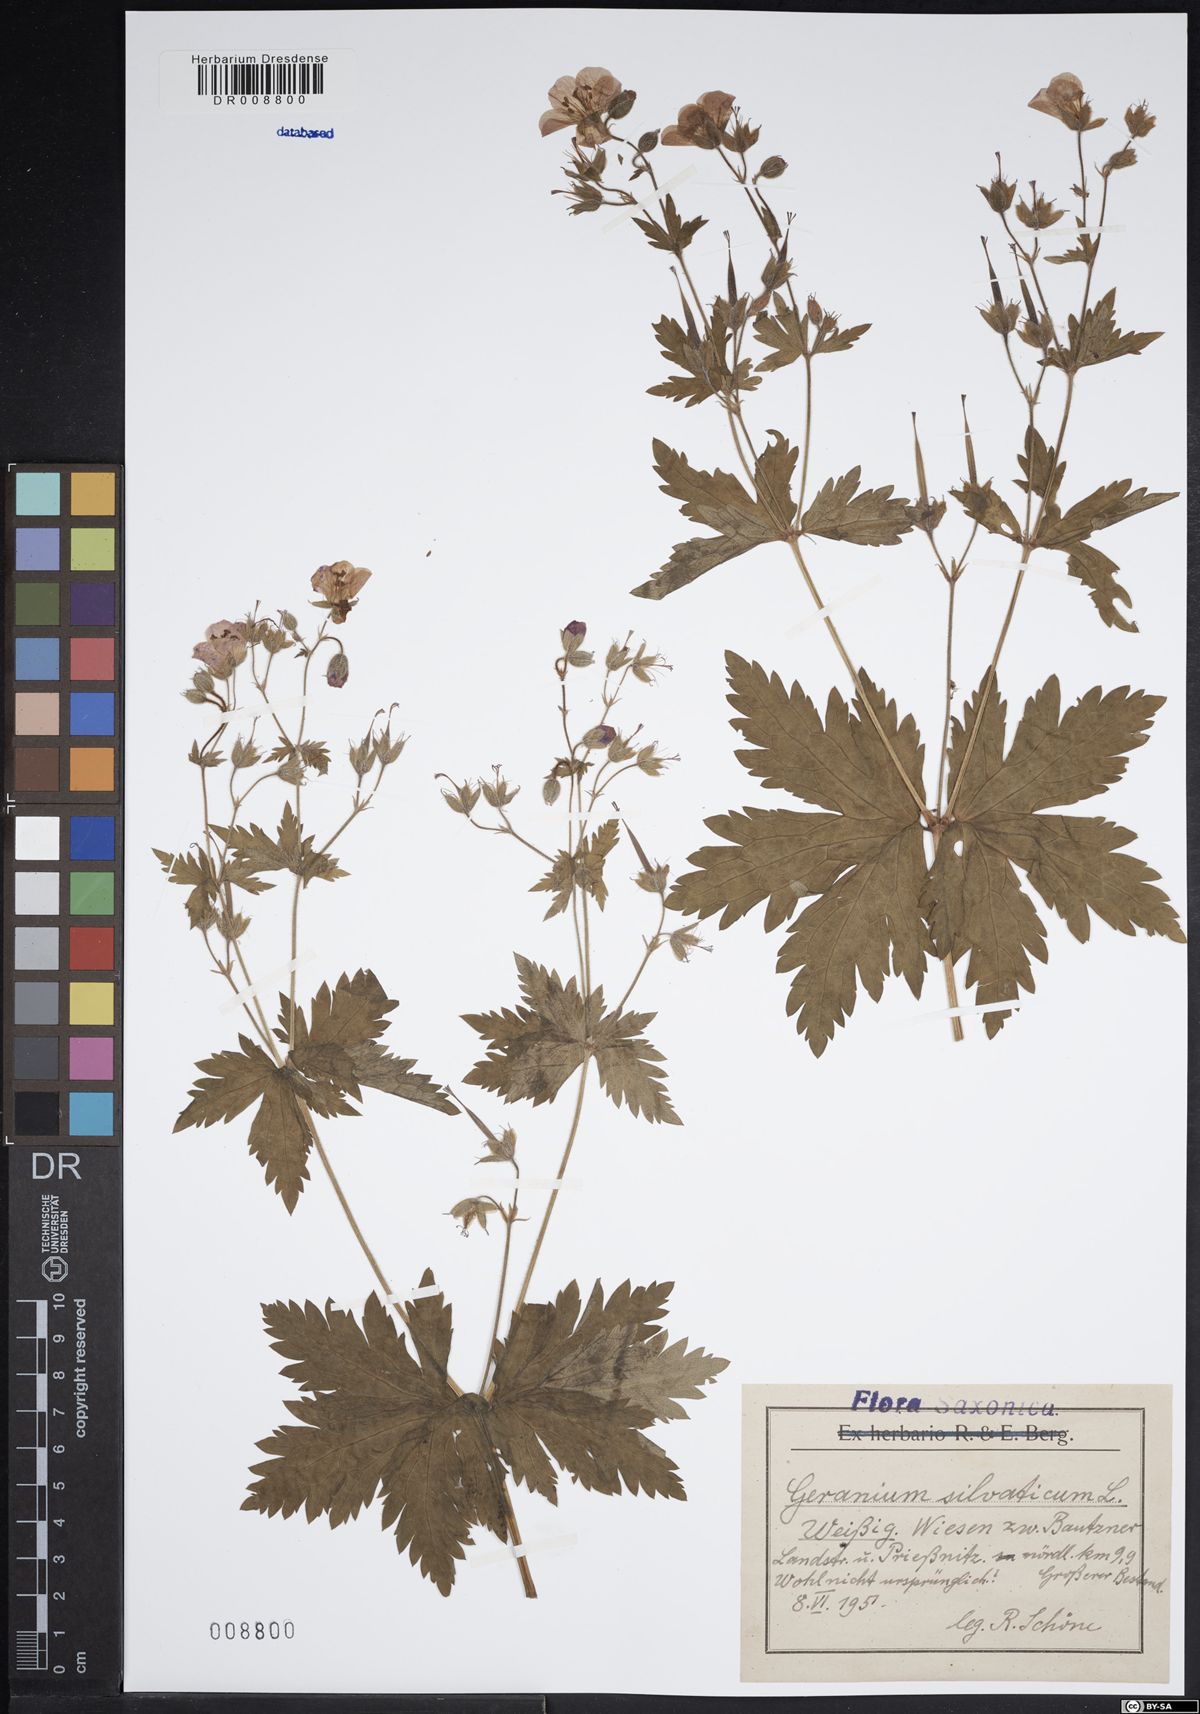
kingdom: Plantae
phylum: Tracheophyta
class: Magnoliopsida
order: Geraniales
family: Geraniaceae
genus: Geranium
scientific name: Geranium sylvaticum
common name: Wood crane's-bill
